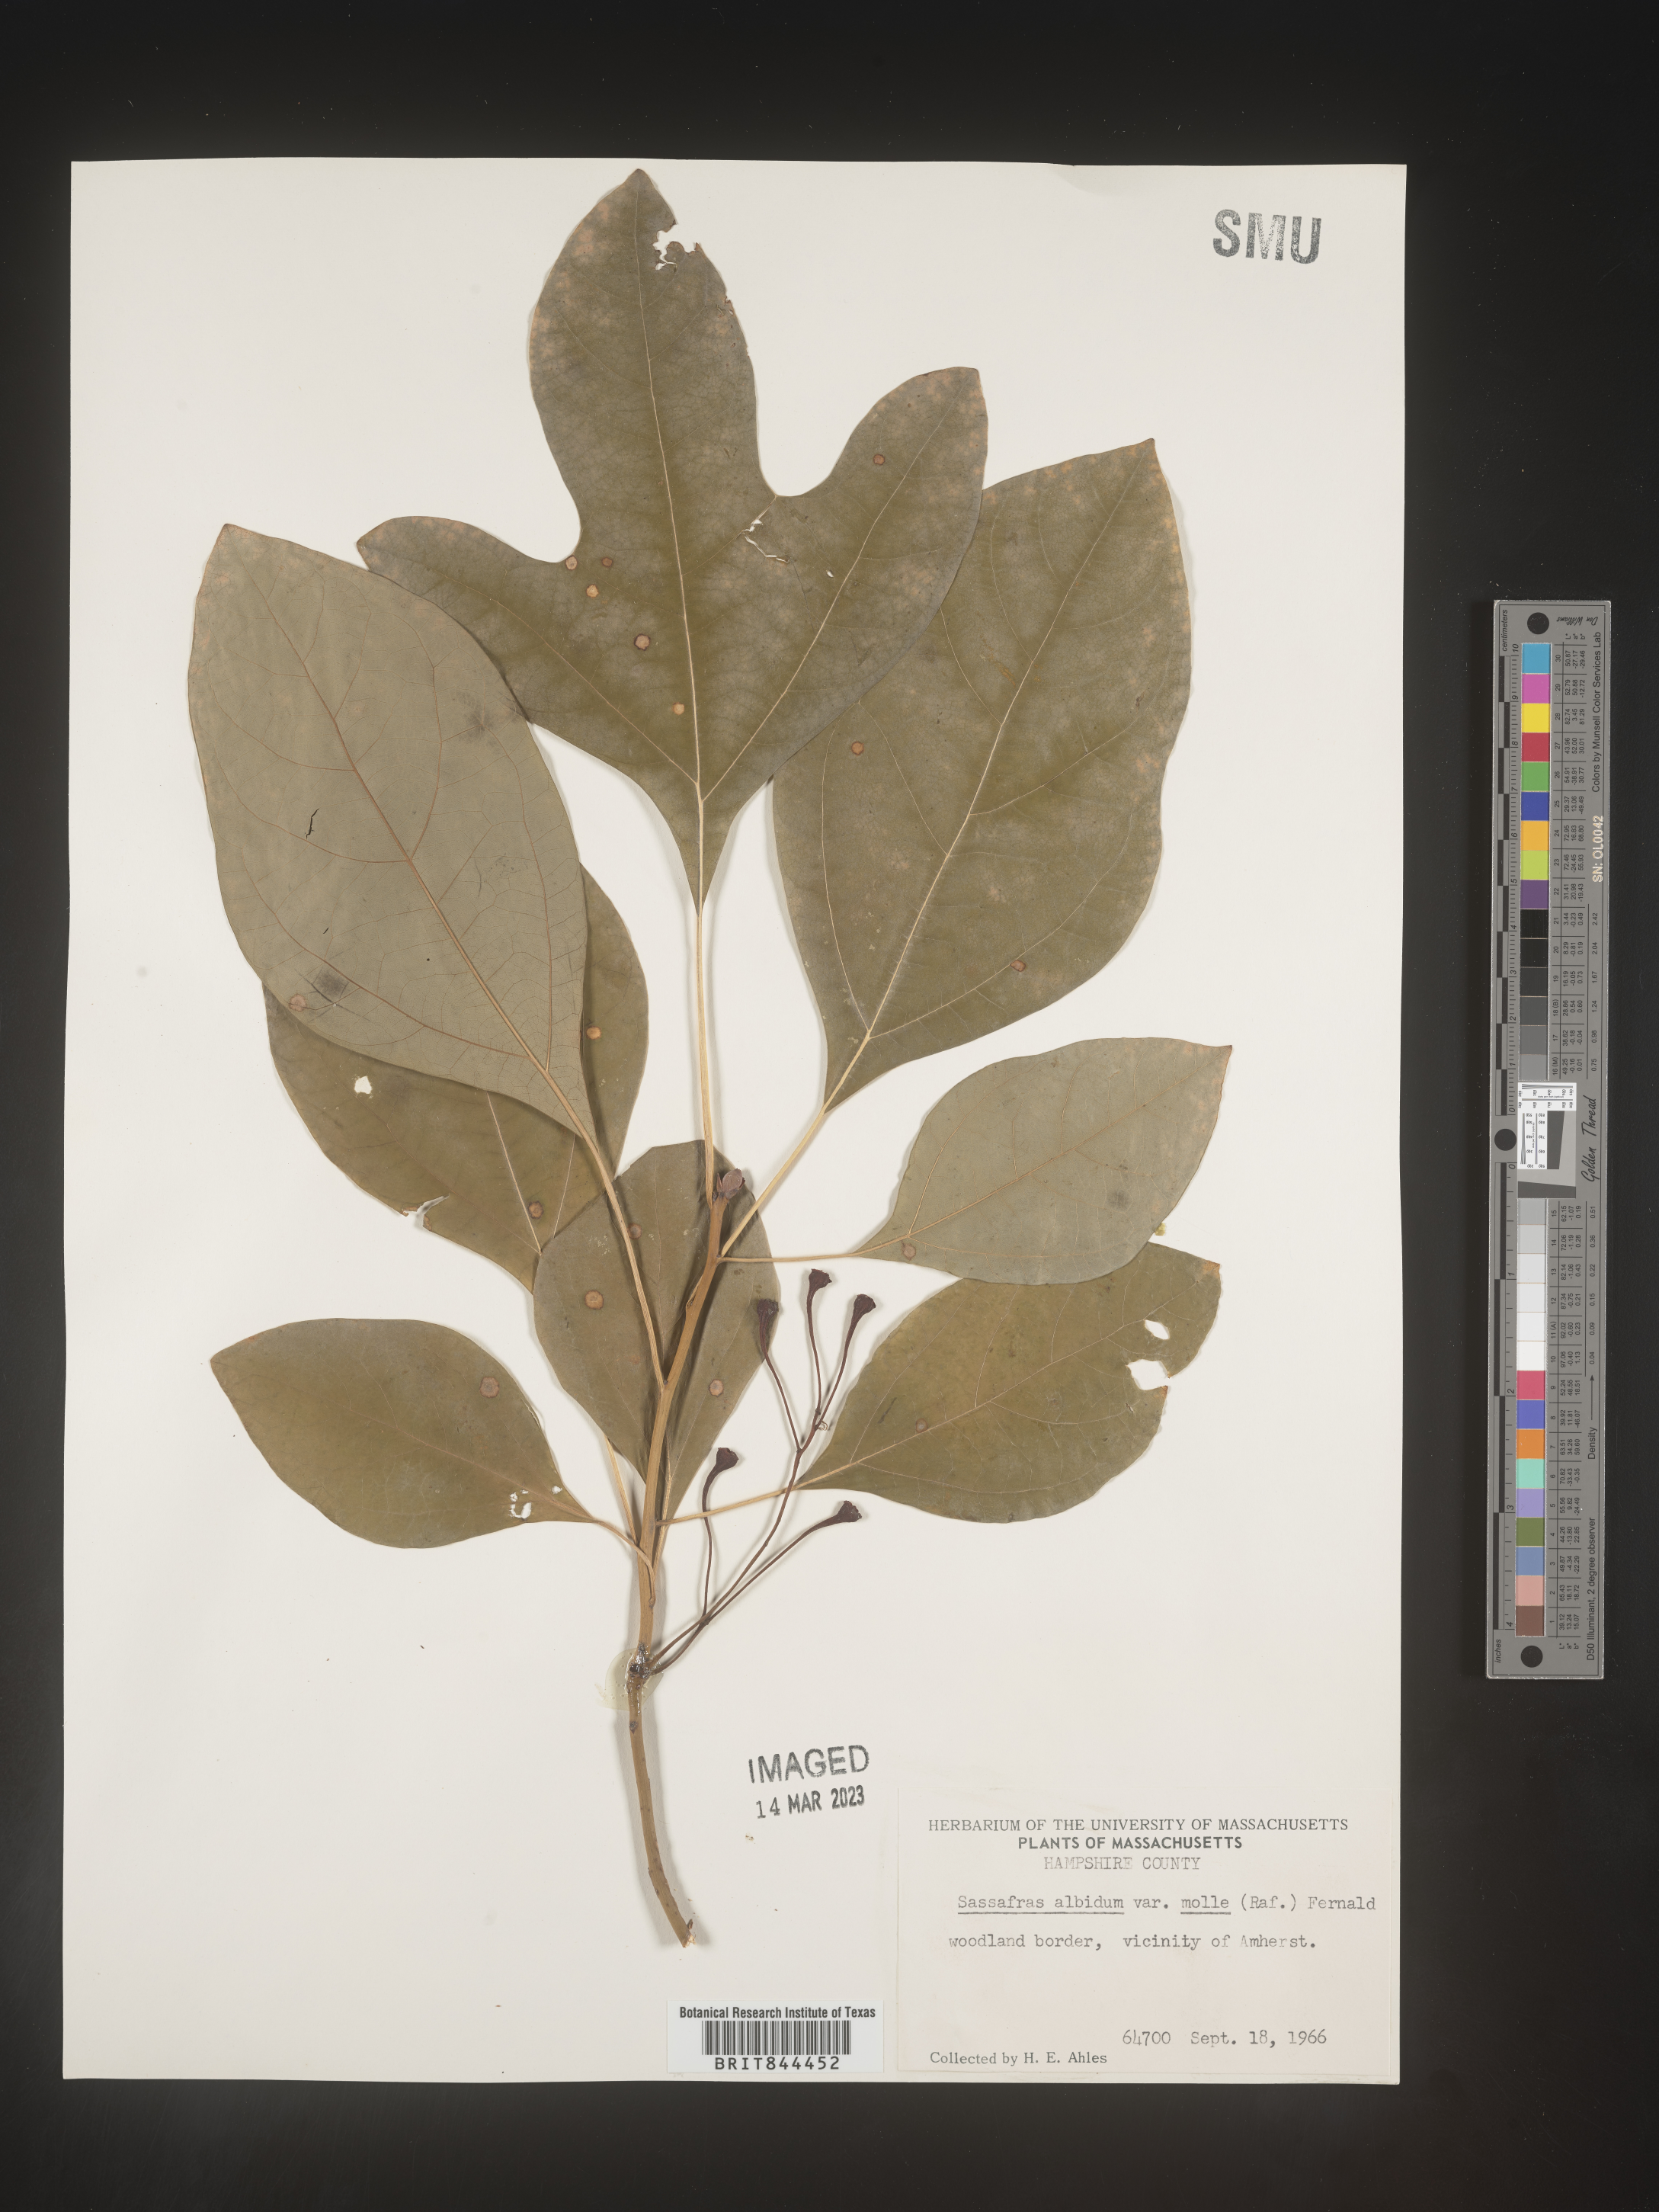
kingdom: Plantae
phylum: Tracheophyta
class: Magnoliopsida
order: Laurales
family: Lauraceae
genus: Sassafras
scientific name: Sassafras albidum
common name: Sassafras
